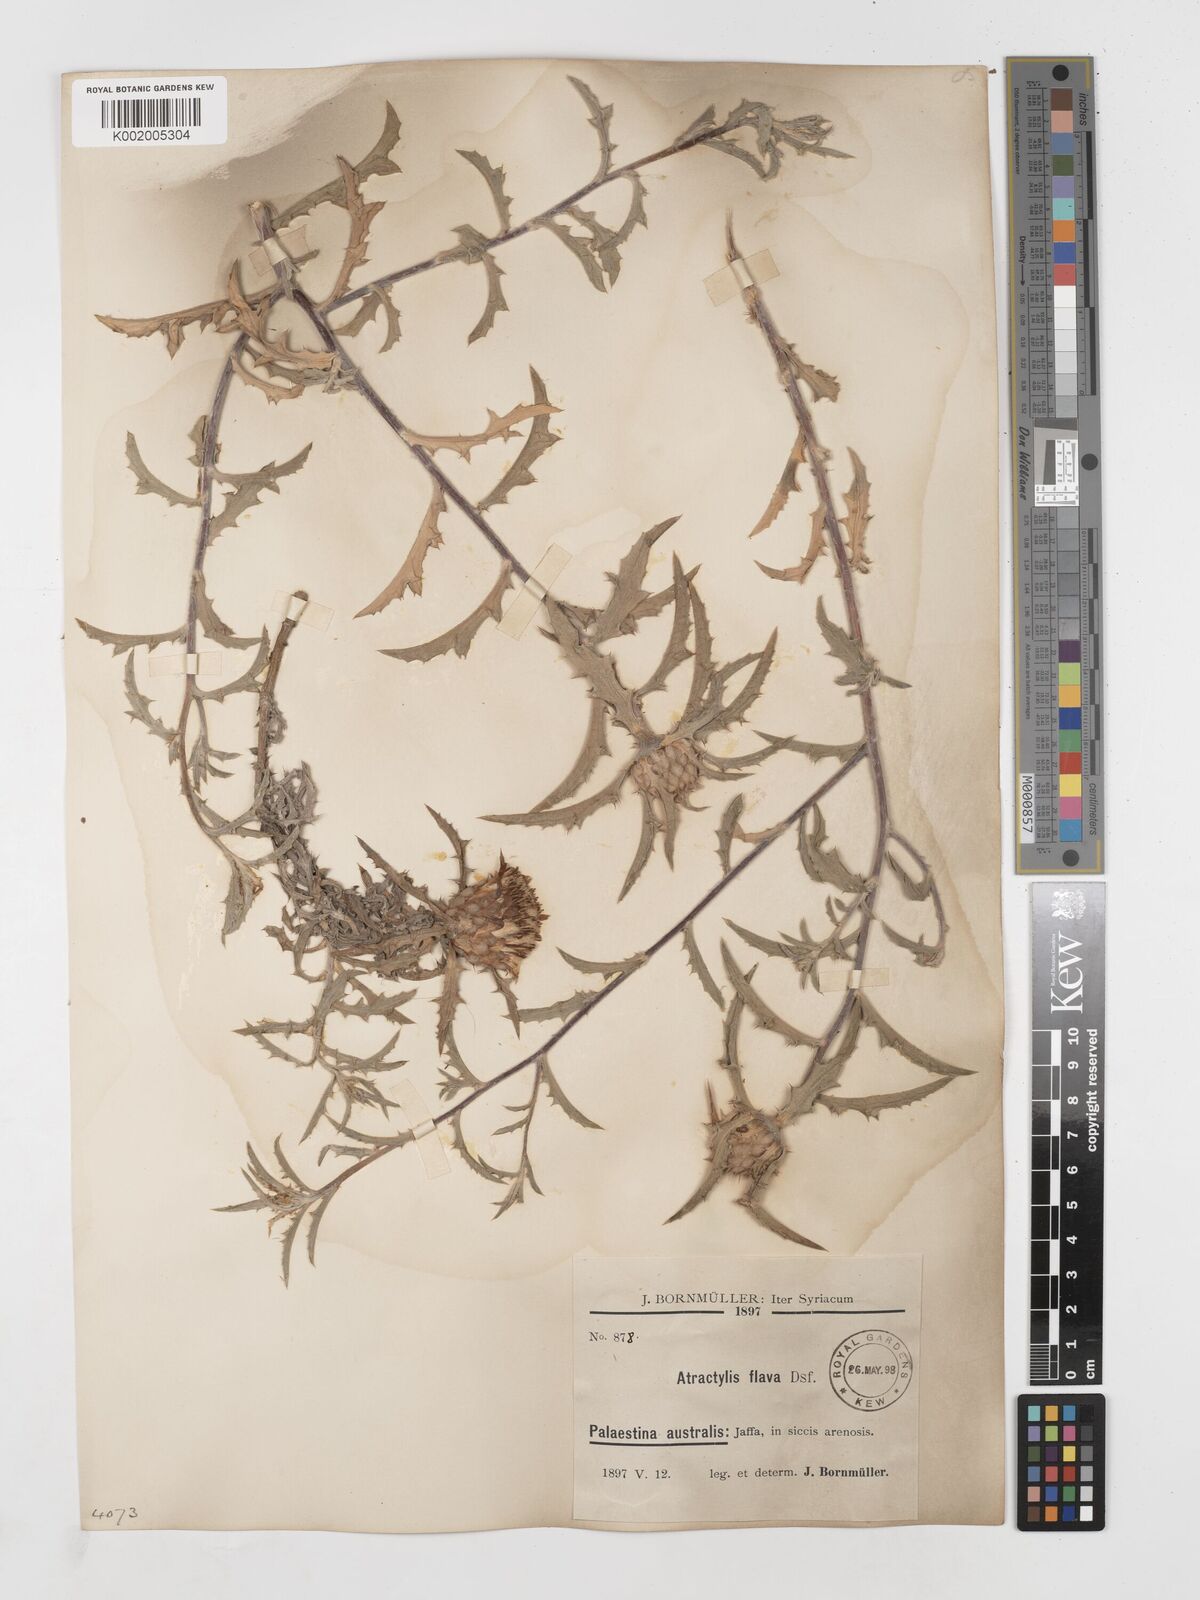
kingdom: Plantae
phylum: Tracheophyta
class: Magnoliopsida
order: Asterales
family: Asteraceae
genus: Atractylis
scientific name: Atractylis carduus
